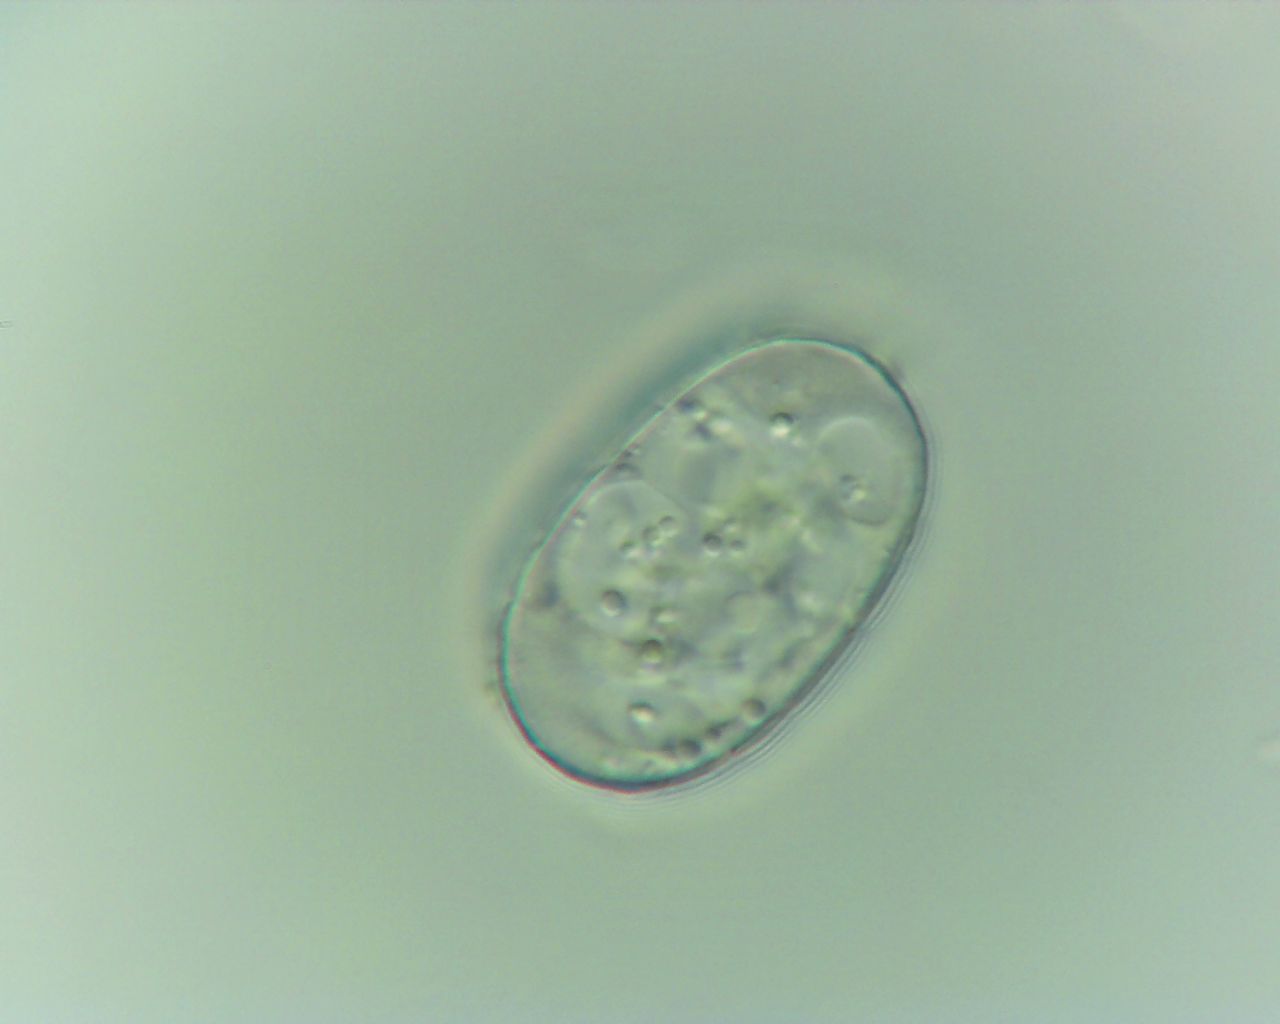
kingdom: Fungi
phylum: Ascomycota
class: Leotiomycetes
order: Helotiales
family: Erysiphaceae
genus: Erysiphe
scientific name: Erysiphe lonicerae
